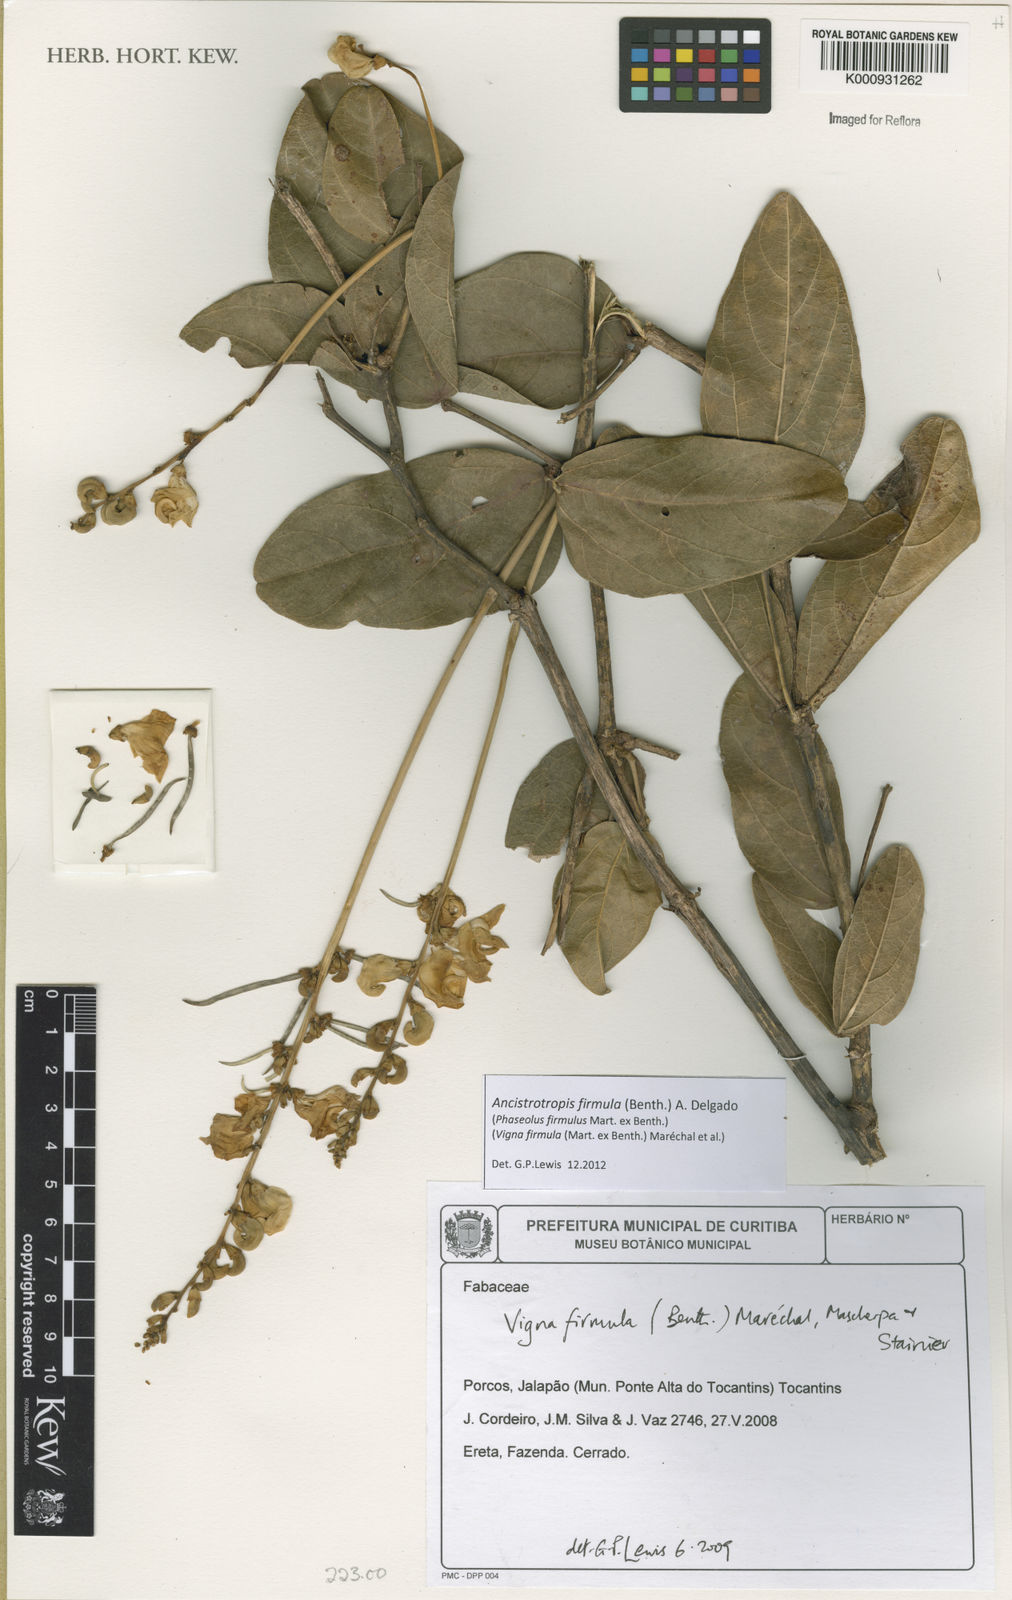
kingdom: Plantae
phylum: Tracheophyta
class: Magnoliopsida
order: Fabales
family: Fabaceae
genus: Ancistrotropis
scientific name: Ancistrotropis firmula
